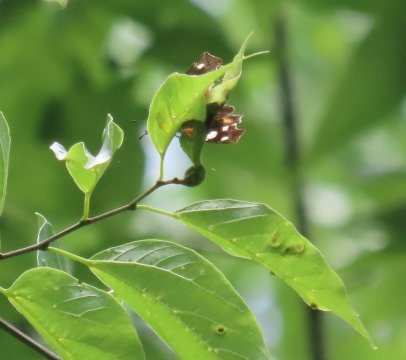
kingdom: Animalia
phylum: Arthropoda
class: Insecta
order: Lepidoptera
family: Nymphalidae
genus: Libytheana
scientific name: Libytheana carinenta
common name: American Snout
